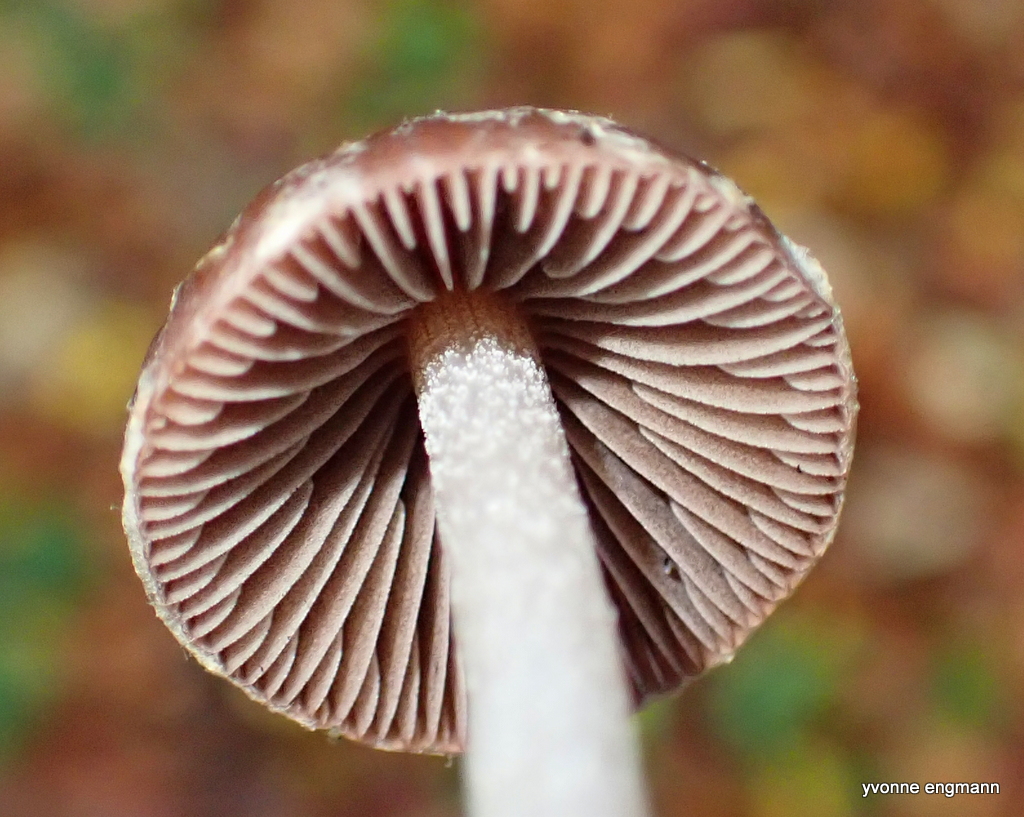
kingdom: Fungi
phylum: Basidiomycota
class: Agaricomycetes
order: Agaricales
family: Psathyrellaceae
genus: Psathyrella
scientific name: Psathyrella bipellis
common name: vinrød mørkhat
